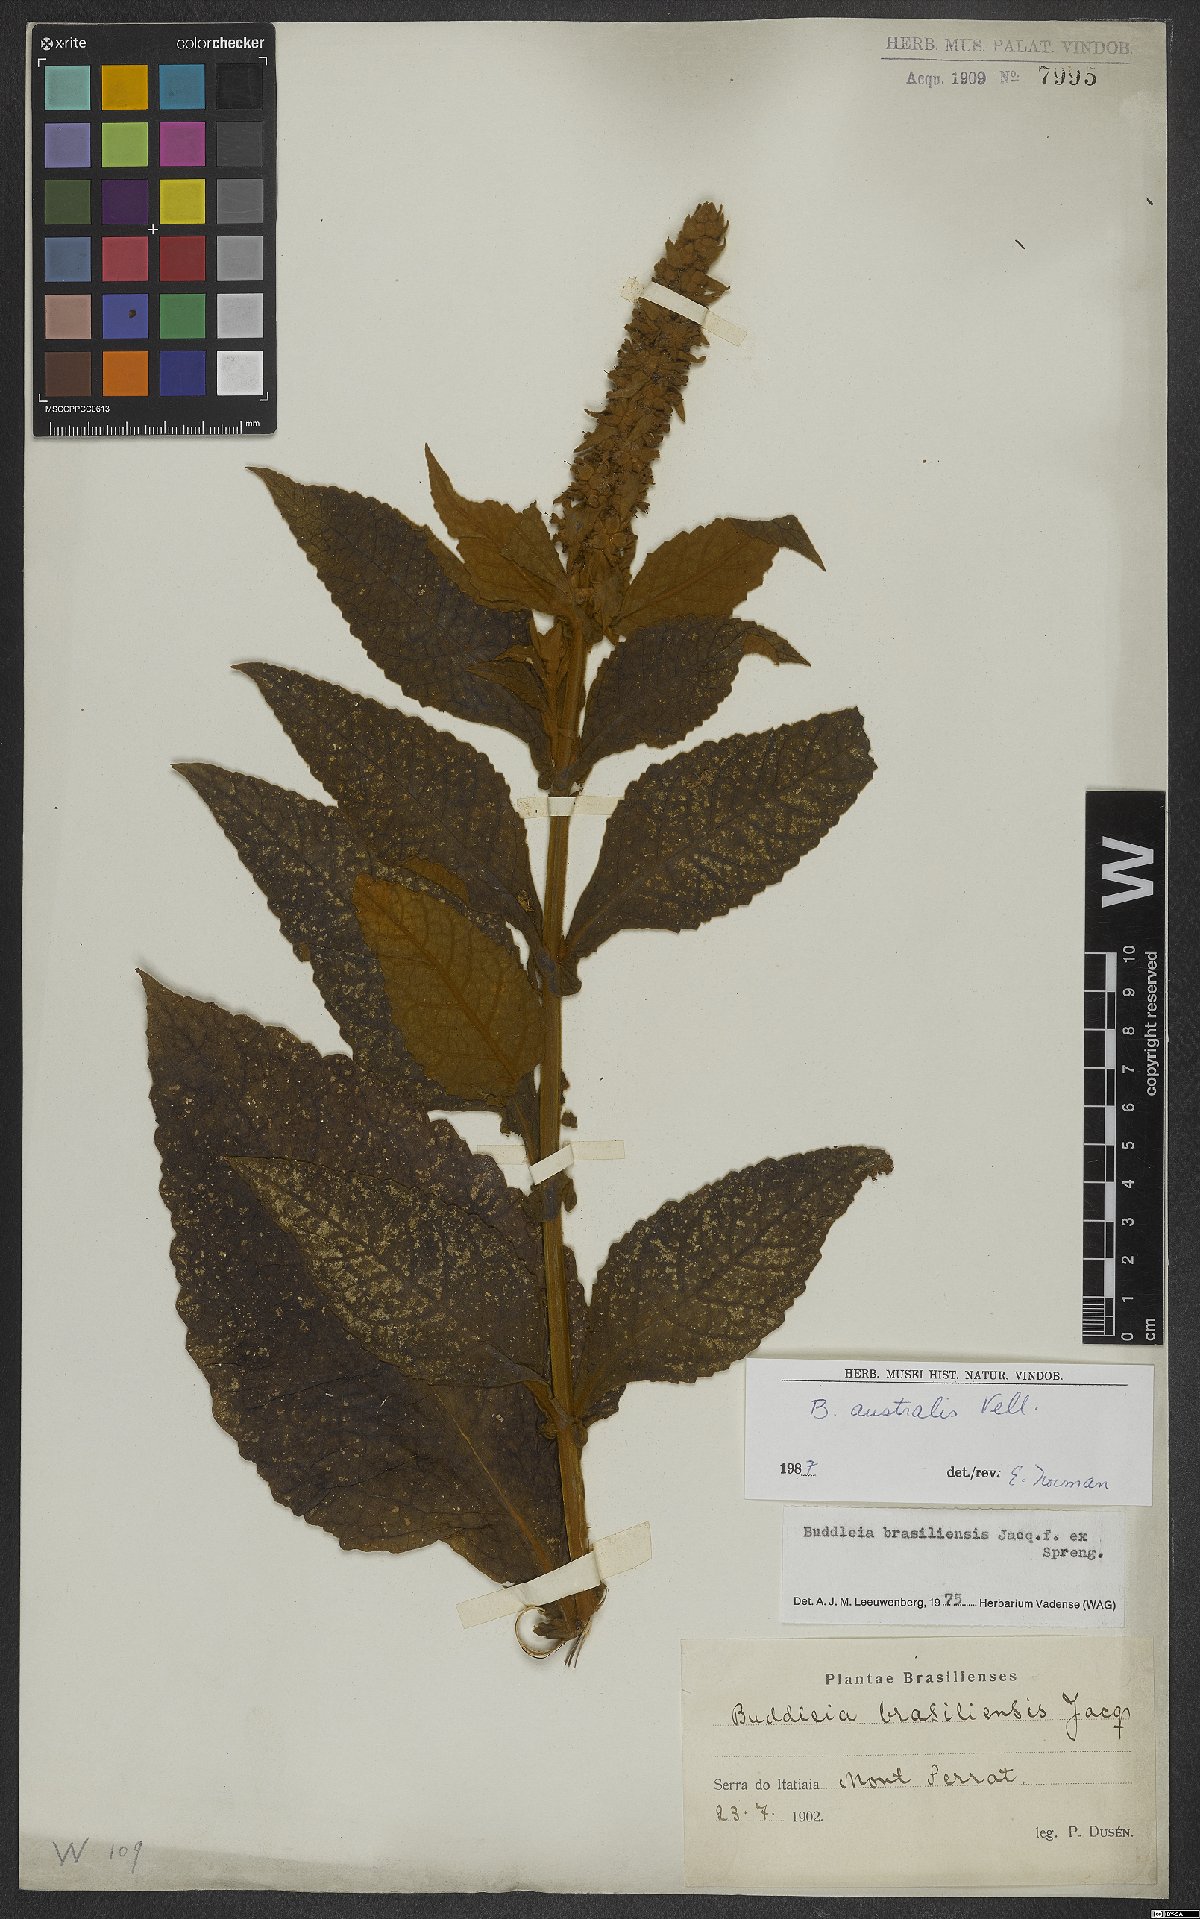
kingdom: Plantae
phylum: Tracheophyta
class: Magnoliopsida
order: Lamiales
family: Scrophulariaceae
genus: Buddleja
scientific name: Buddleja stachyoides
